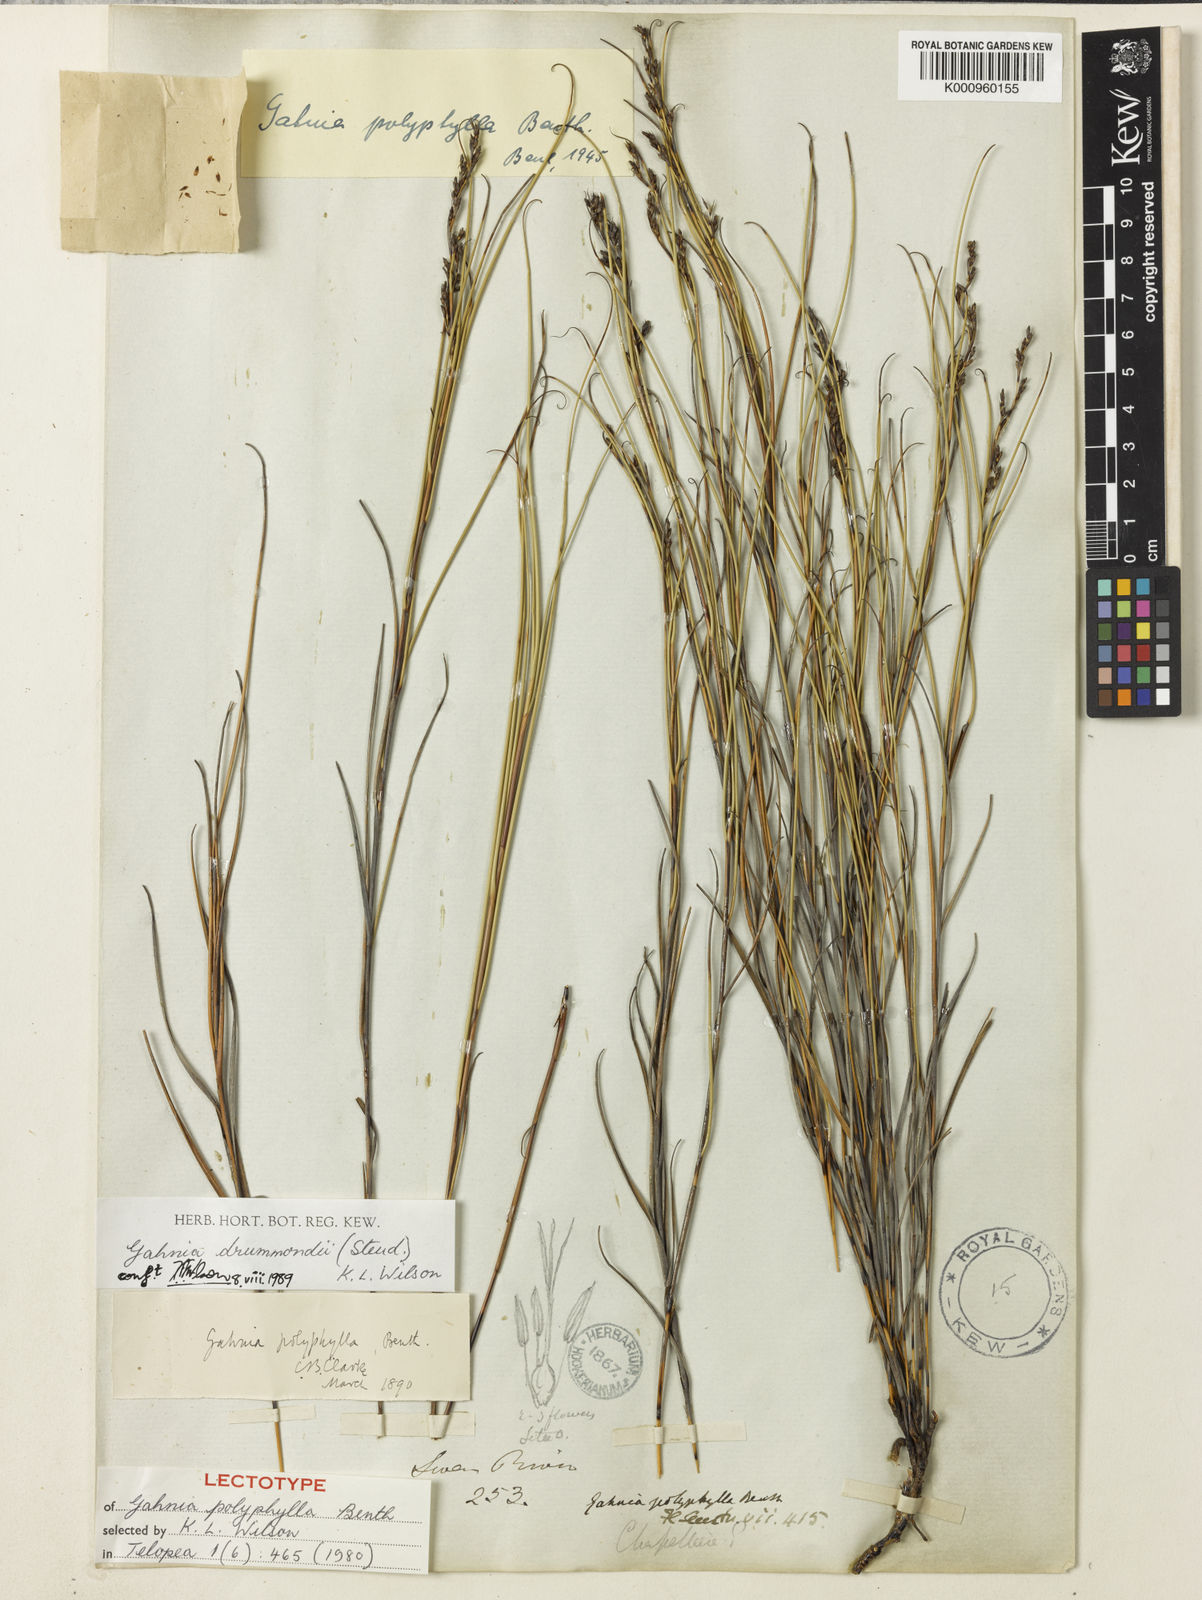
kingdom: Plantae
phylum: Tracheophyta
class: Liliopsida
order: Poales
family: Cyperaceae
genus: Gahnia
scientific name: Gahnia drummondii
